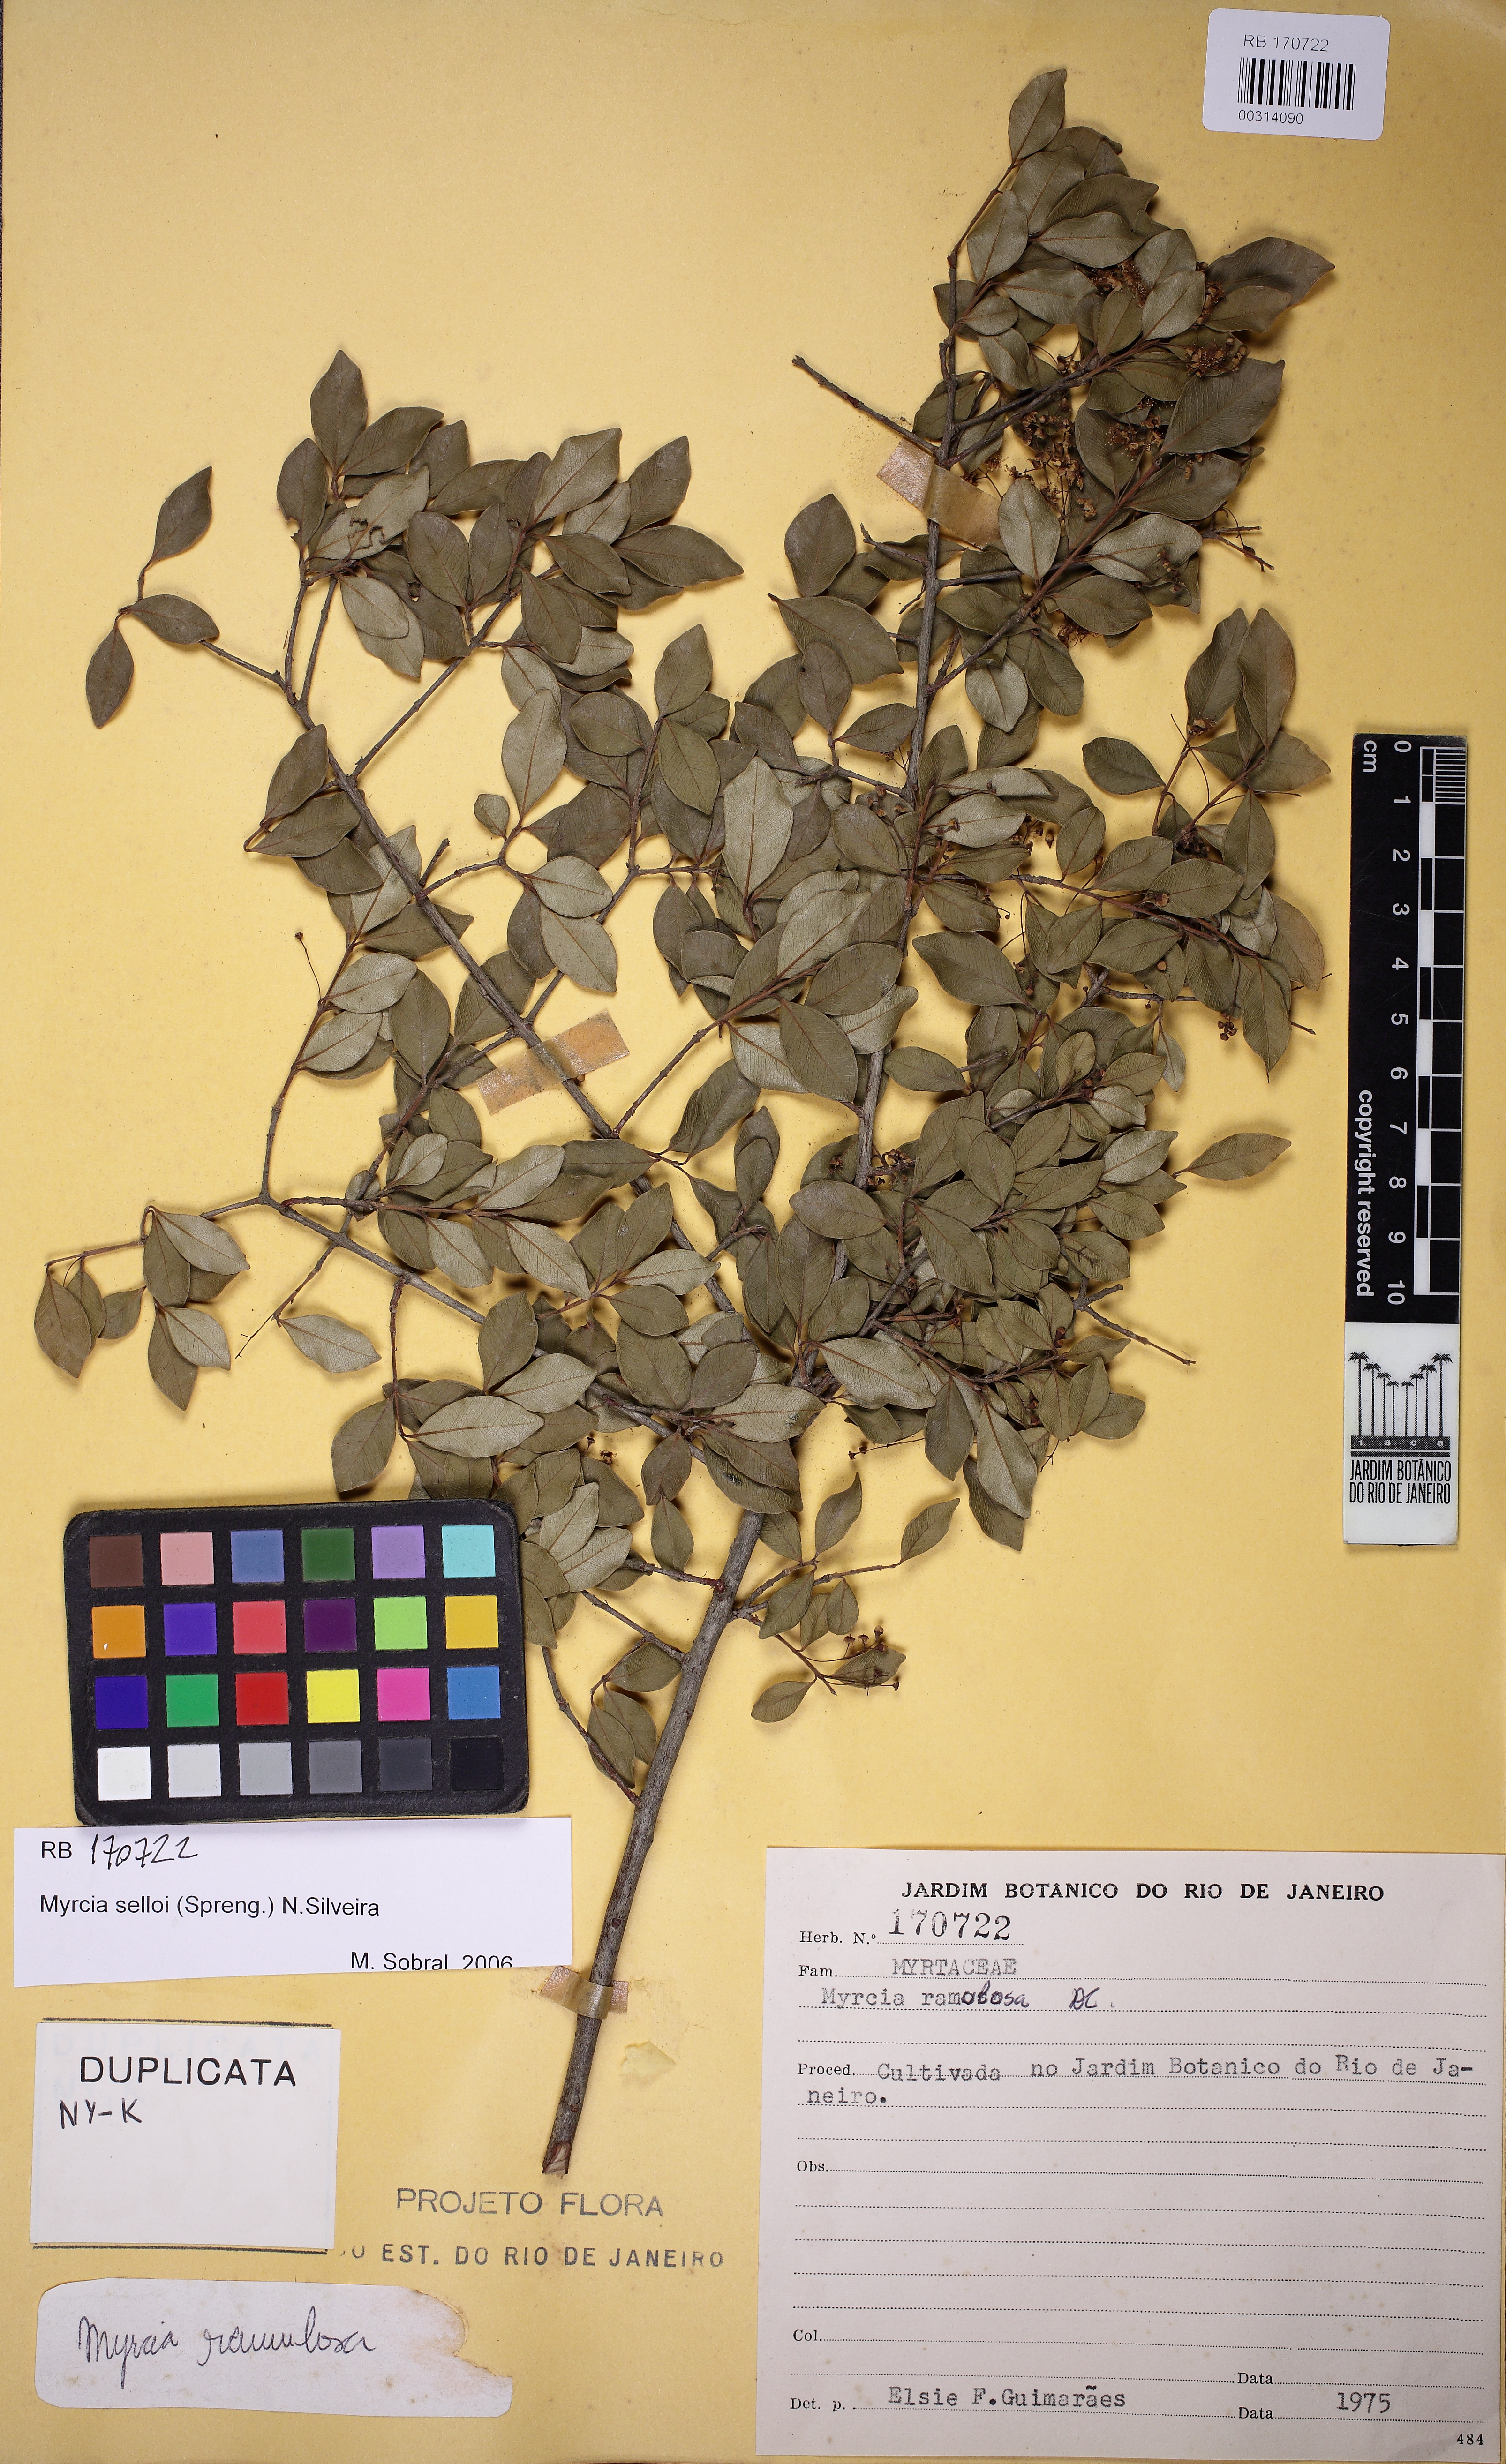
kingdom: Plantae
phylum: Tracheophyta
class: Magnoliopsida
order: Myrtales
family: Myrtaceae
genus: Myrcia
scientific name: Myrcia selloi
